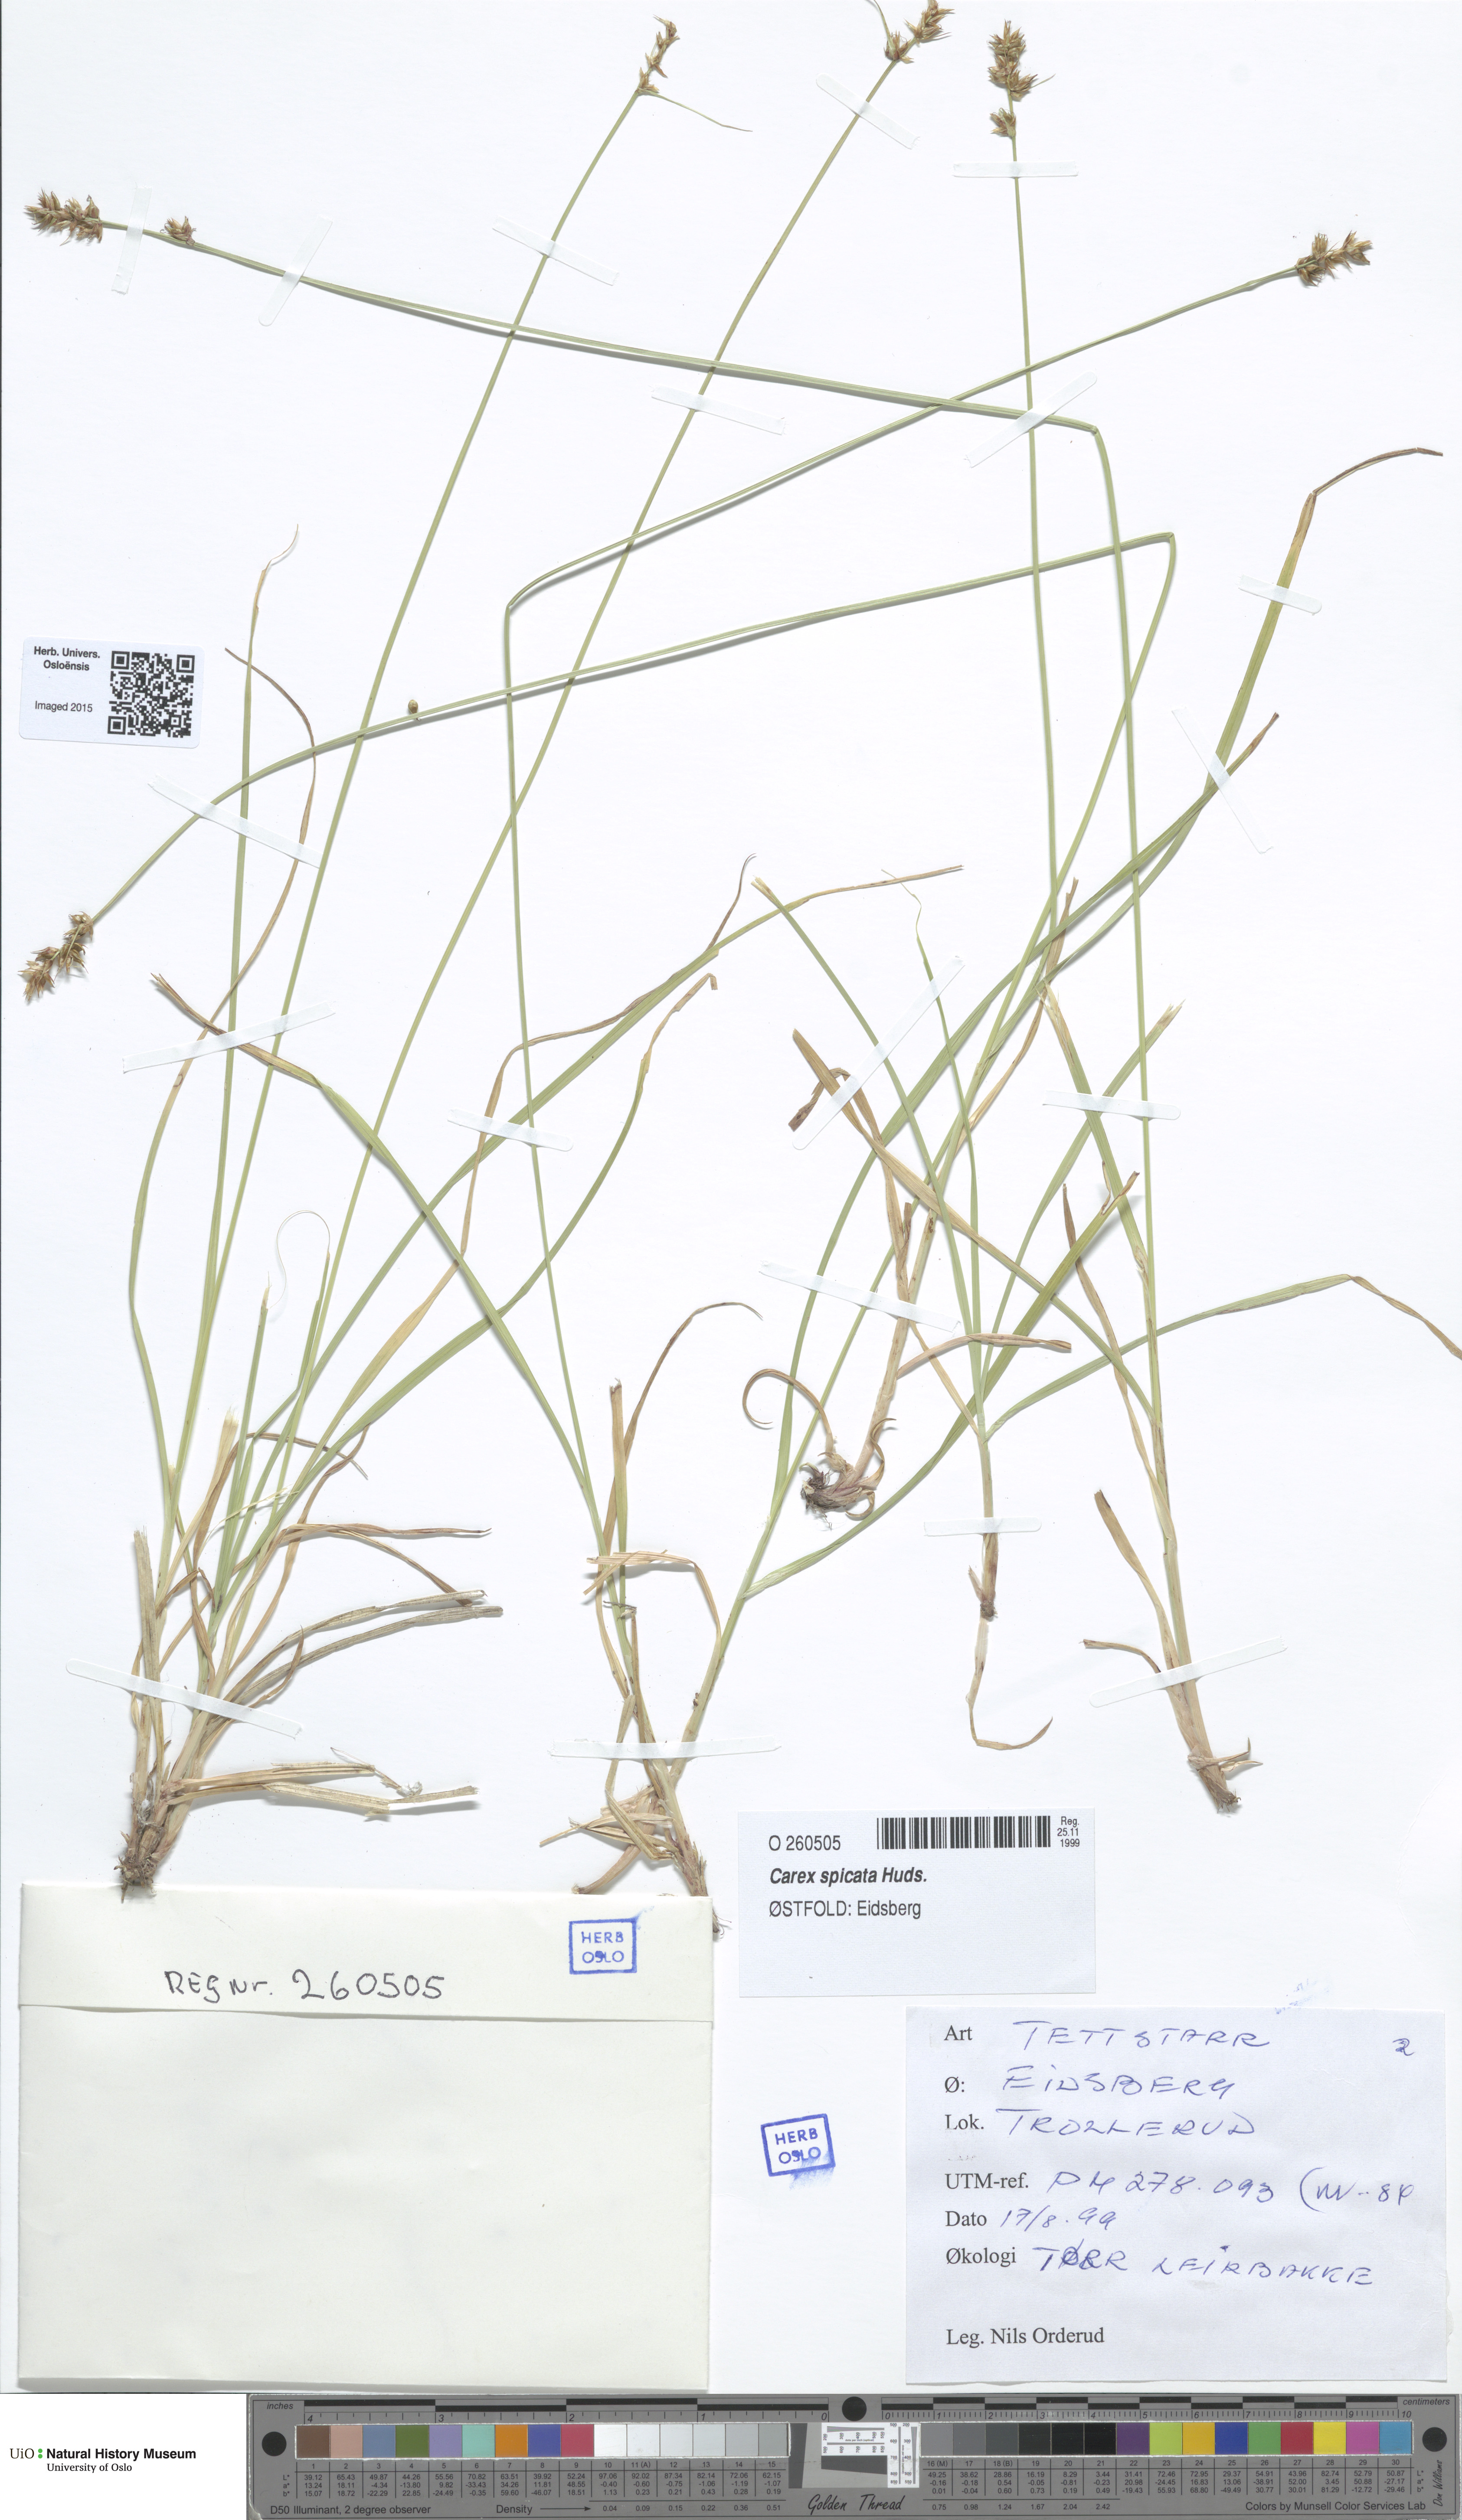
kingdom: Plantae
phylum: Tracheophyta
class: Liliopsida
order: Poales
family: Cyperaceae
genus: Carex
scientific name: Carex spicata
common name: Spiked sedge
